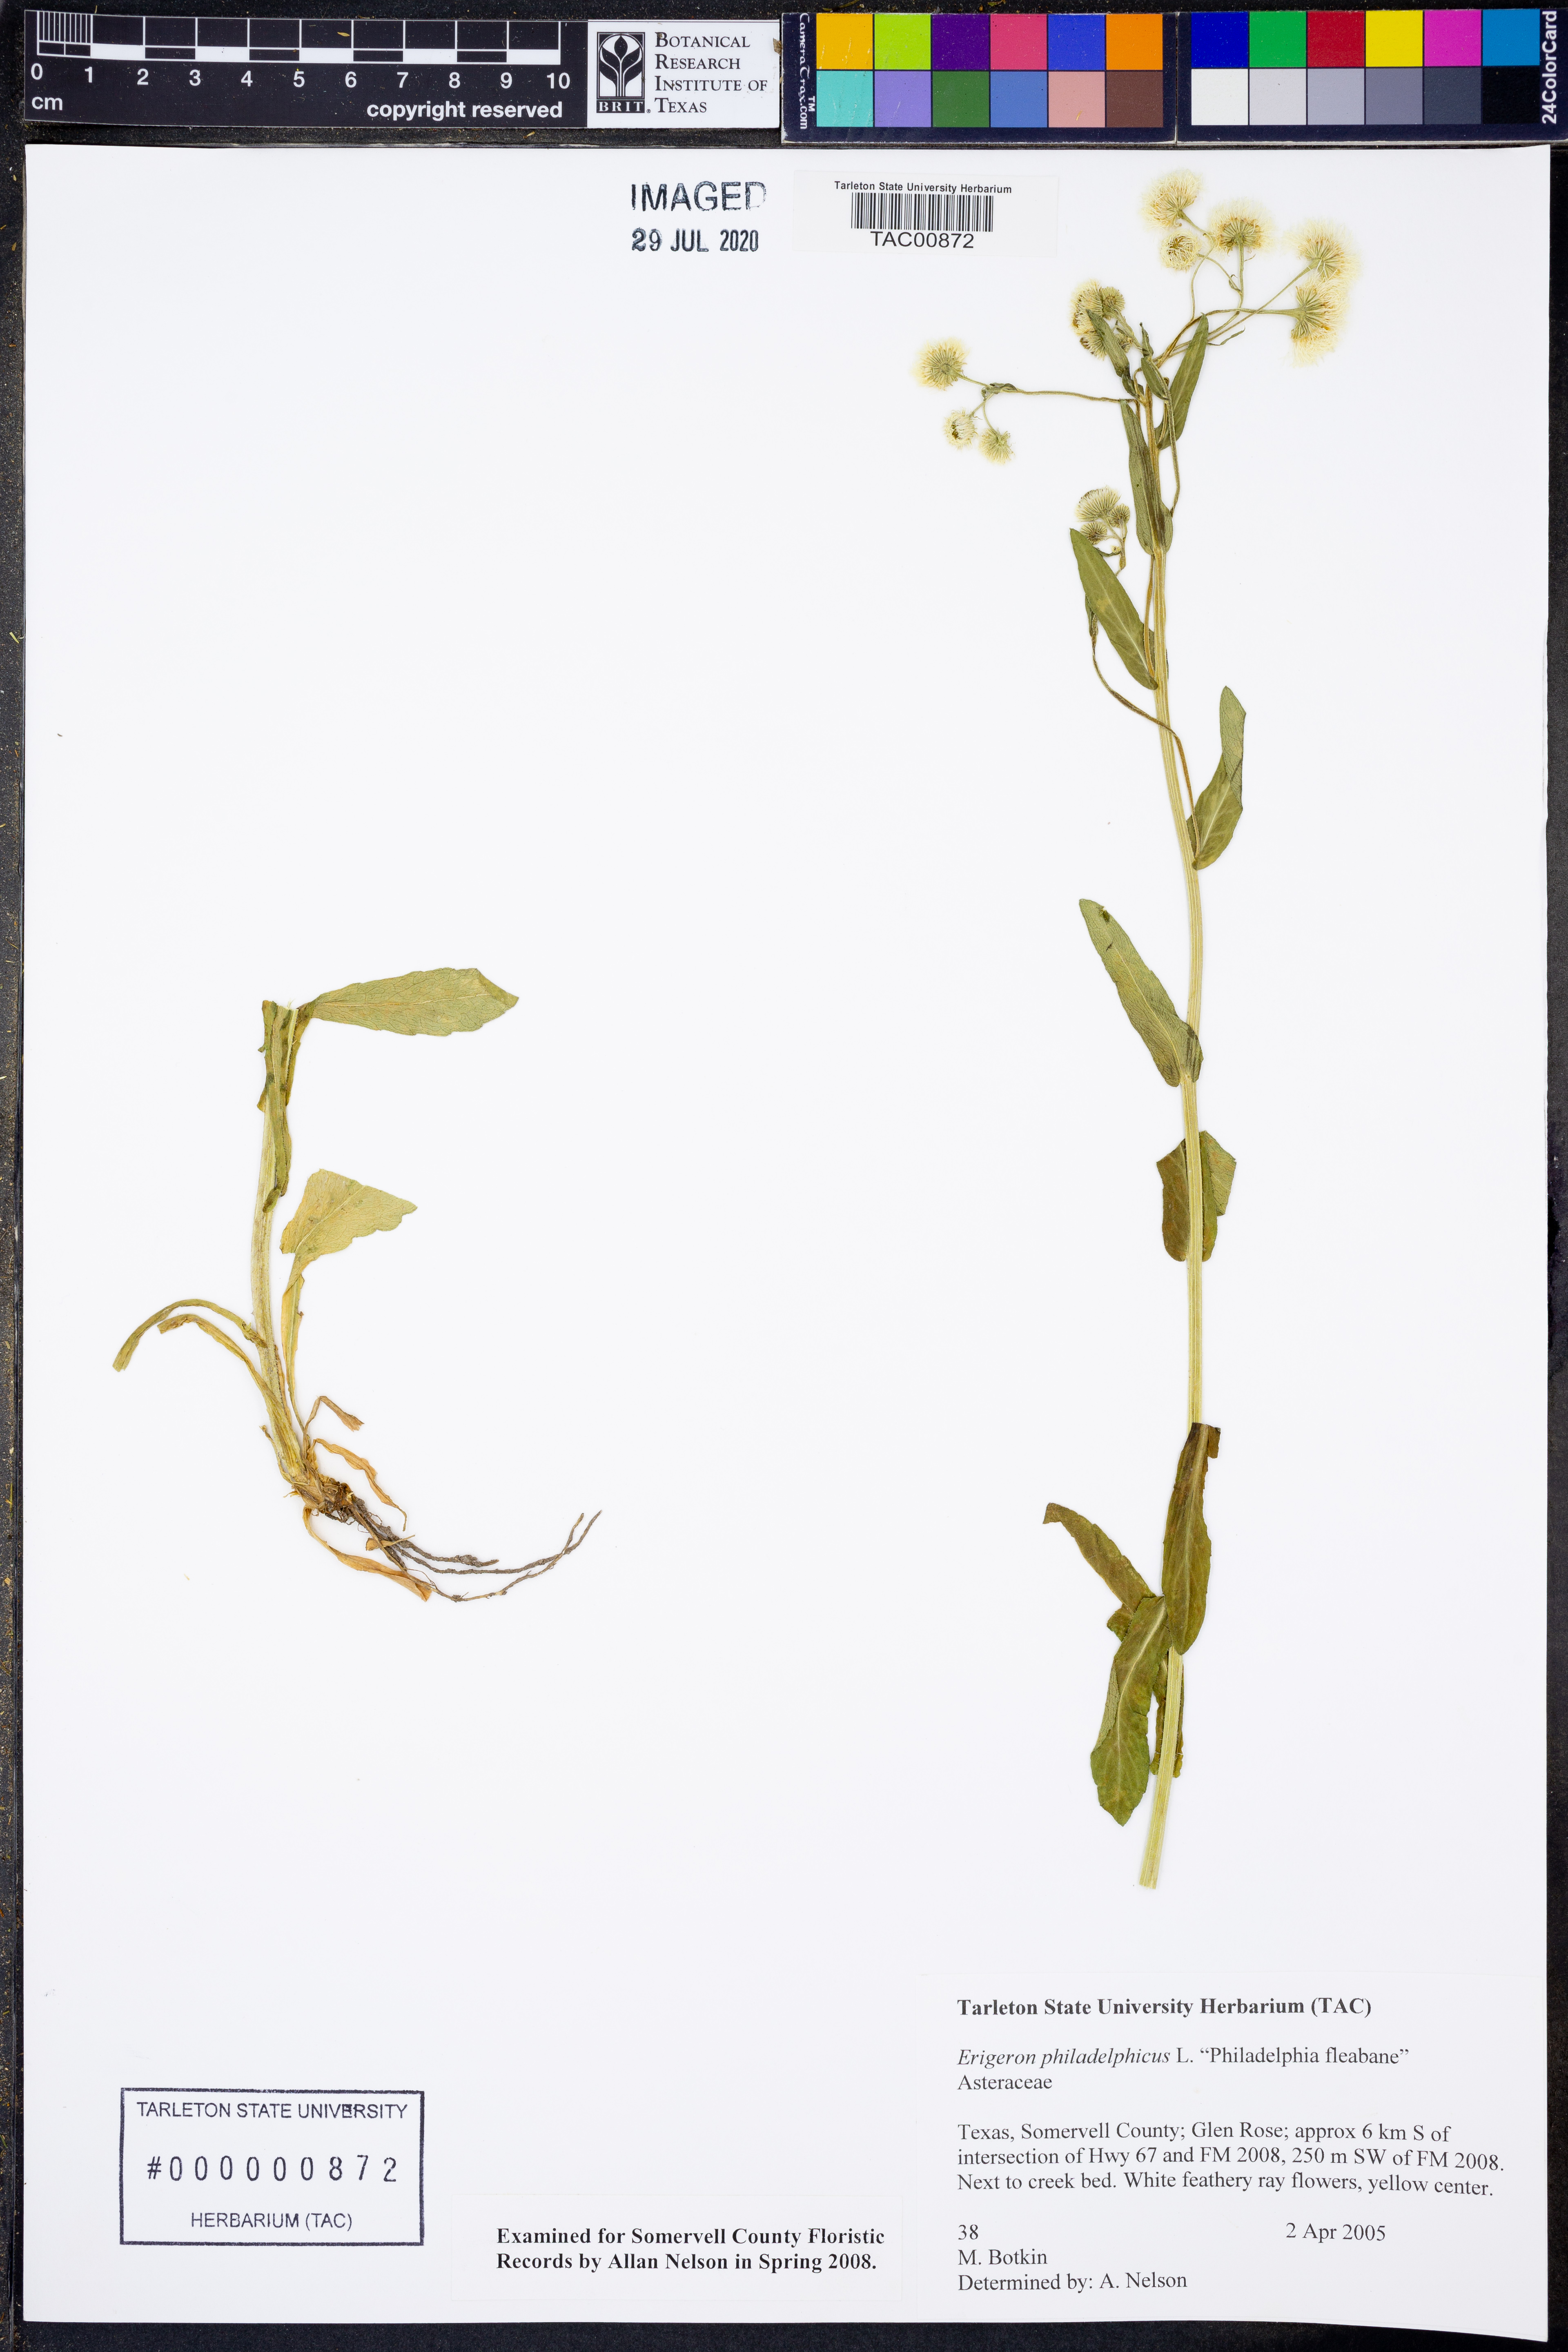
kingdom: Plantae
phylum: Tracheophyta
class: Magnoliopsida
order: Asterales
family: Asteraceae
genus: Erigeron
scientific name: Erigeron philadelphicus
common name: Robin's-plantain
